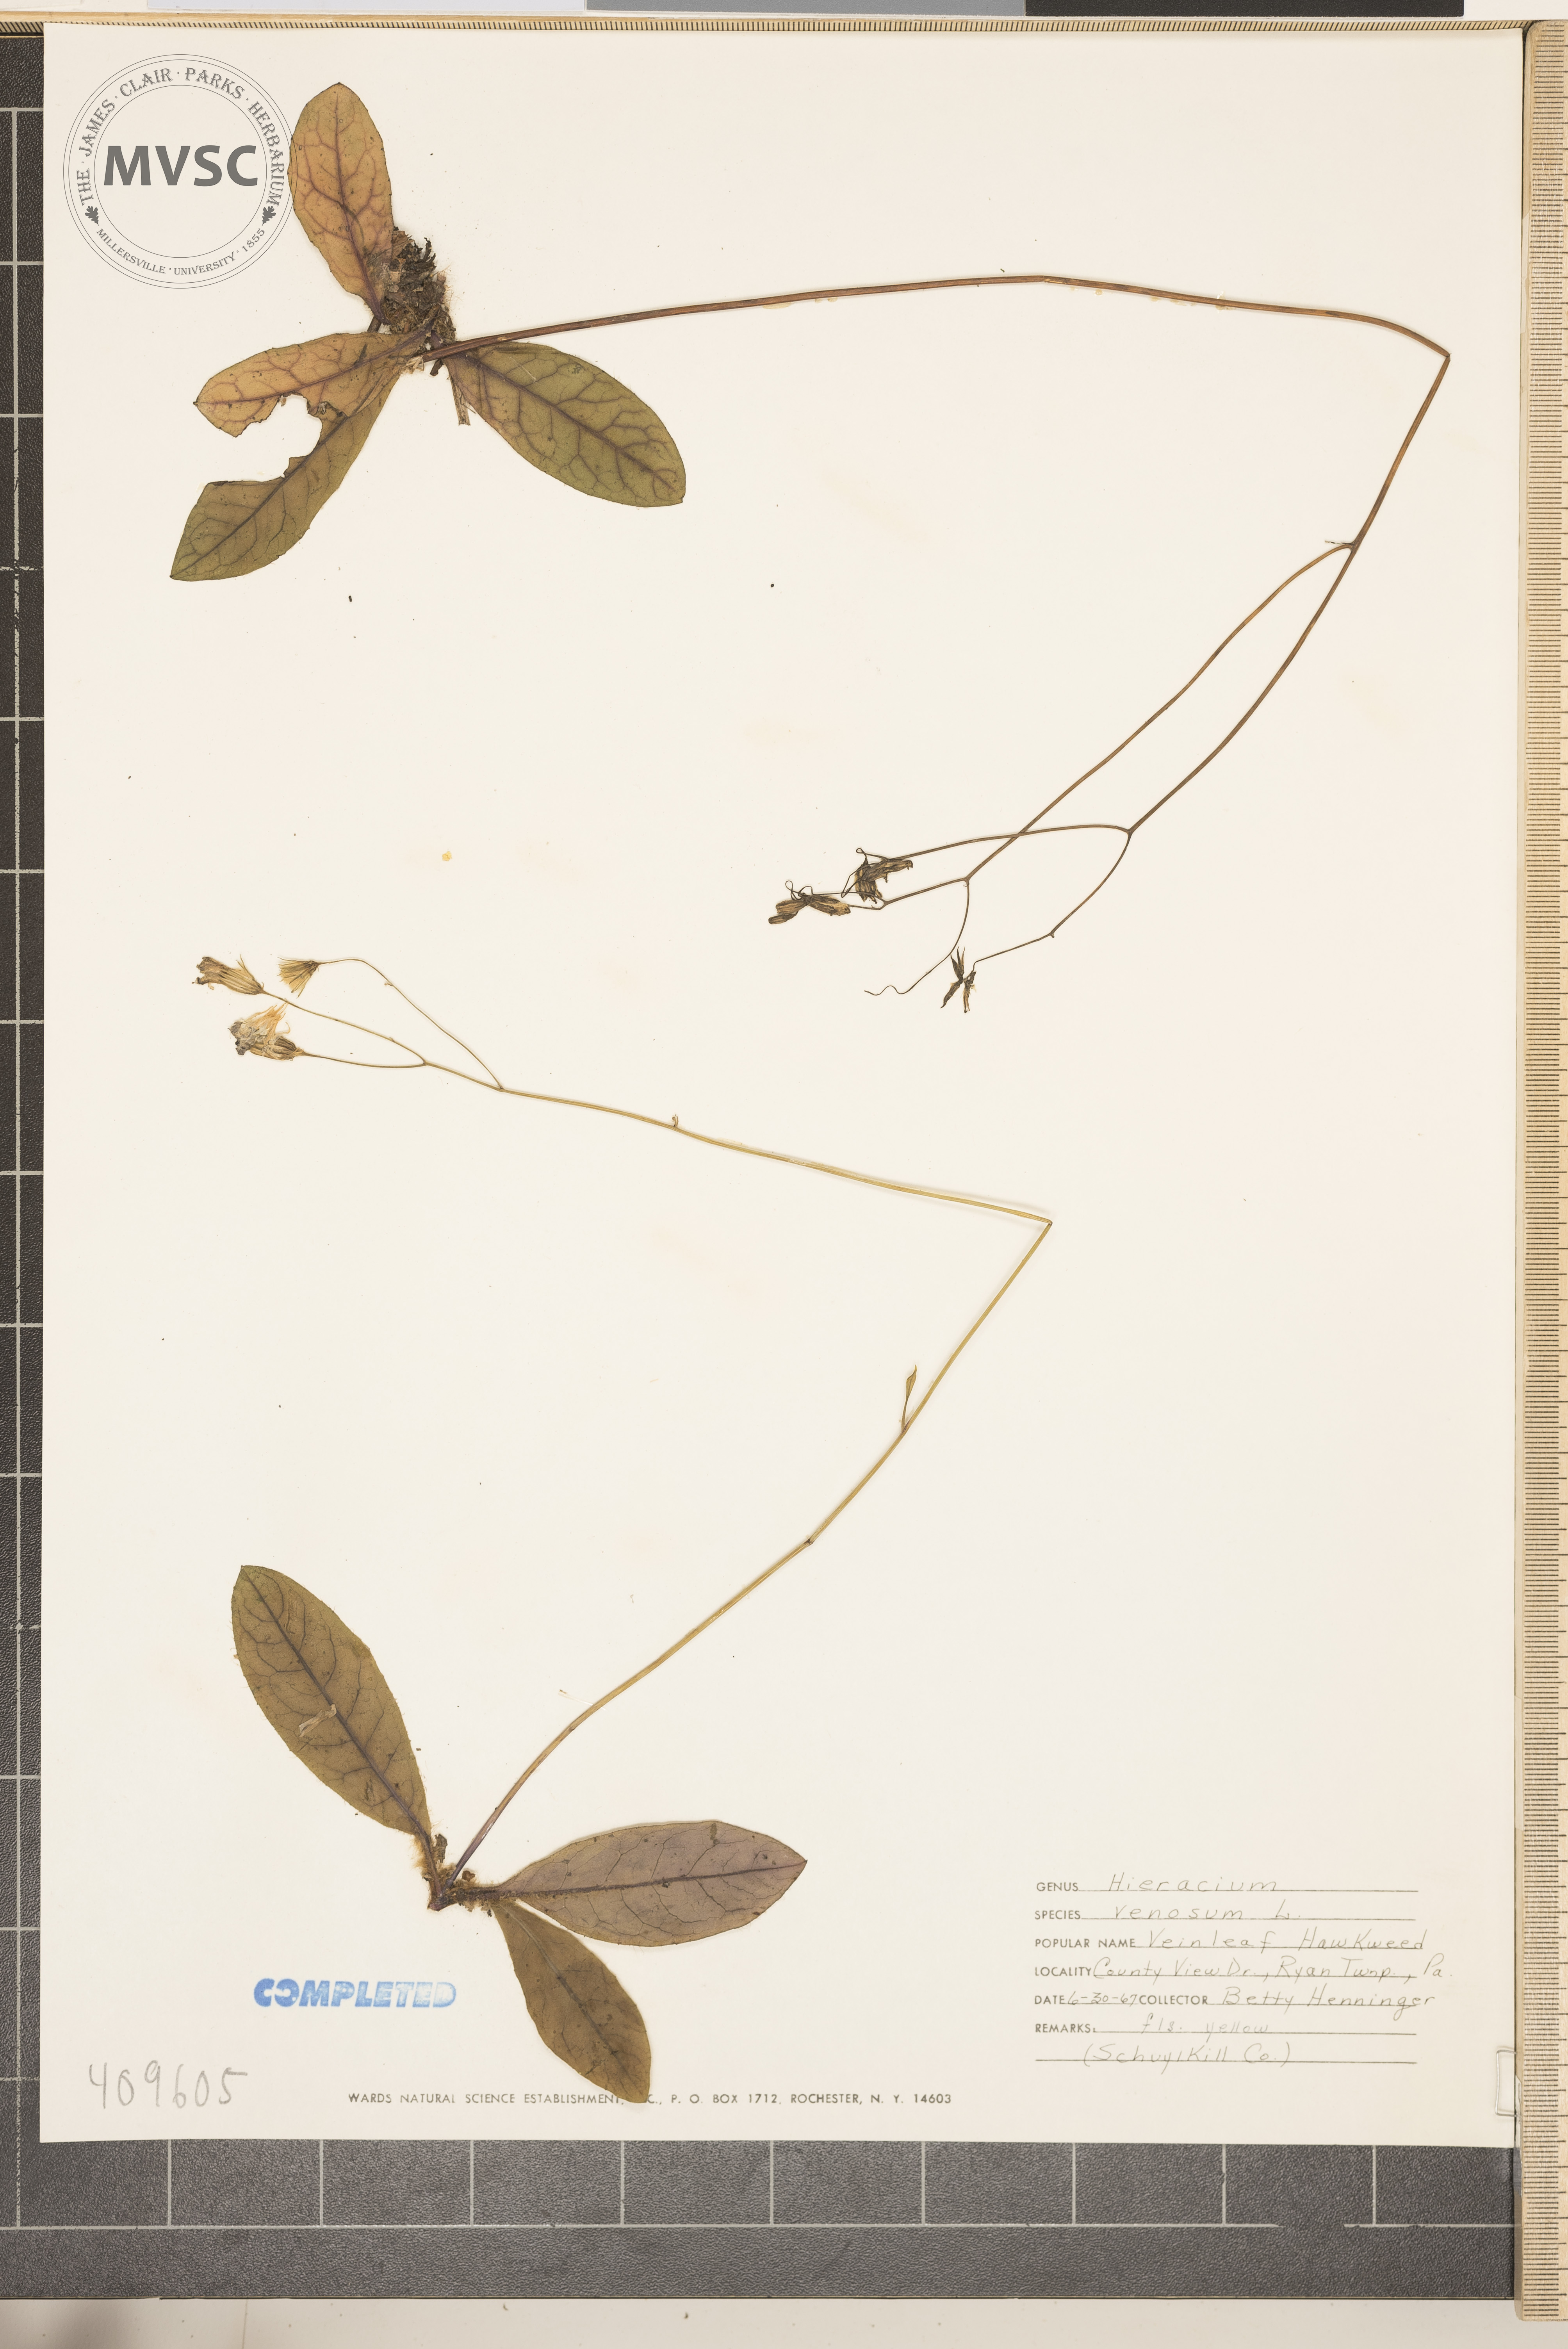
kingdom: Plantae
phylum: Tracheophyta
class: Magnoliopsida
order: Asterales
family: Asteraceae
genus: Hieracium
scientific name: Hieracium venosum
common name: Rattlesnake hawkweed
